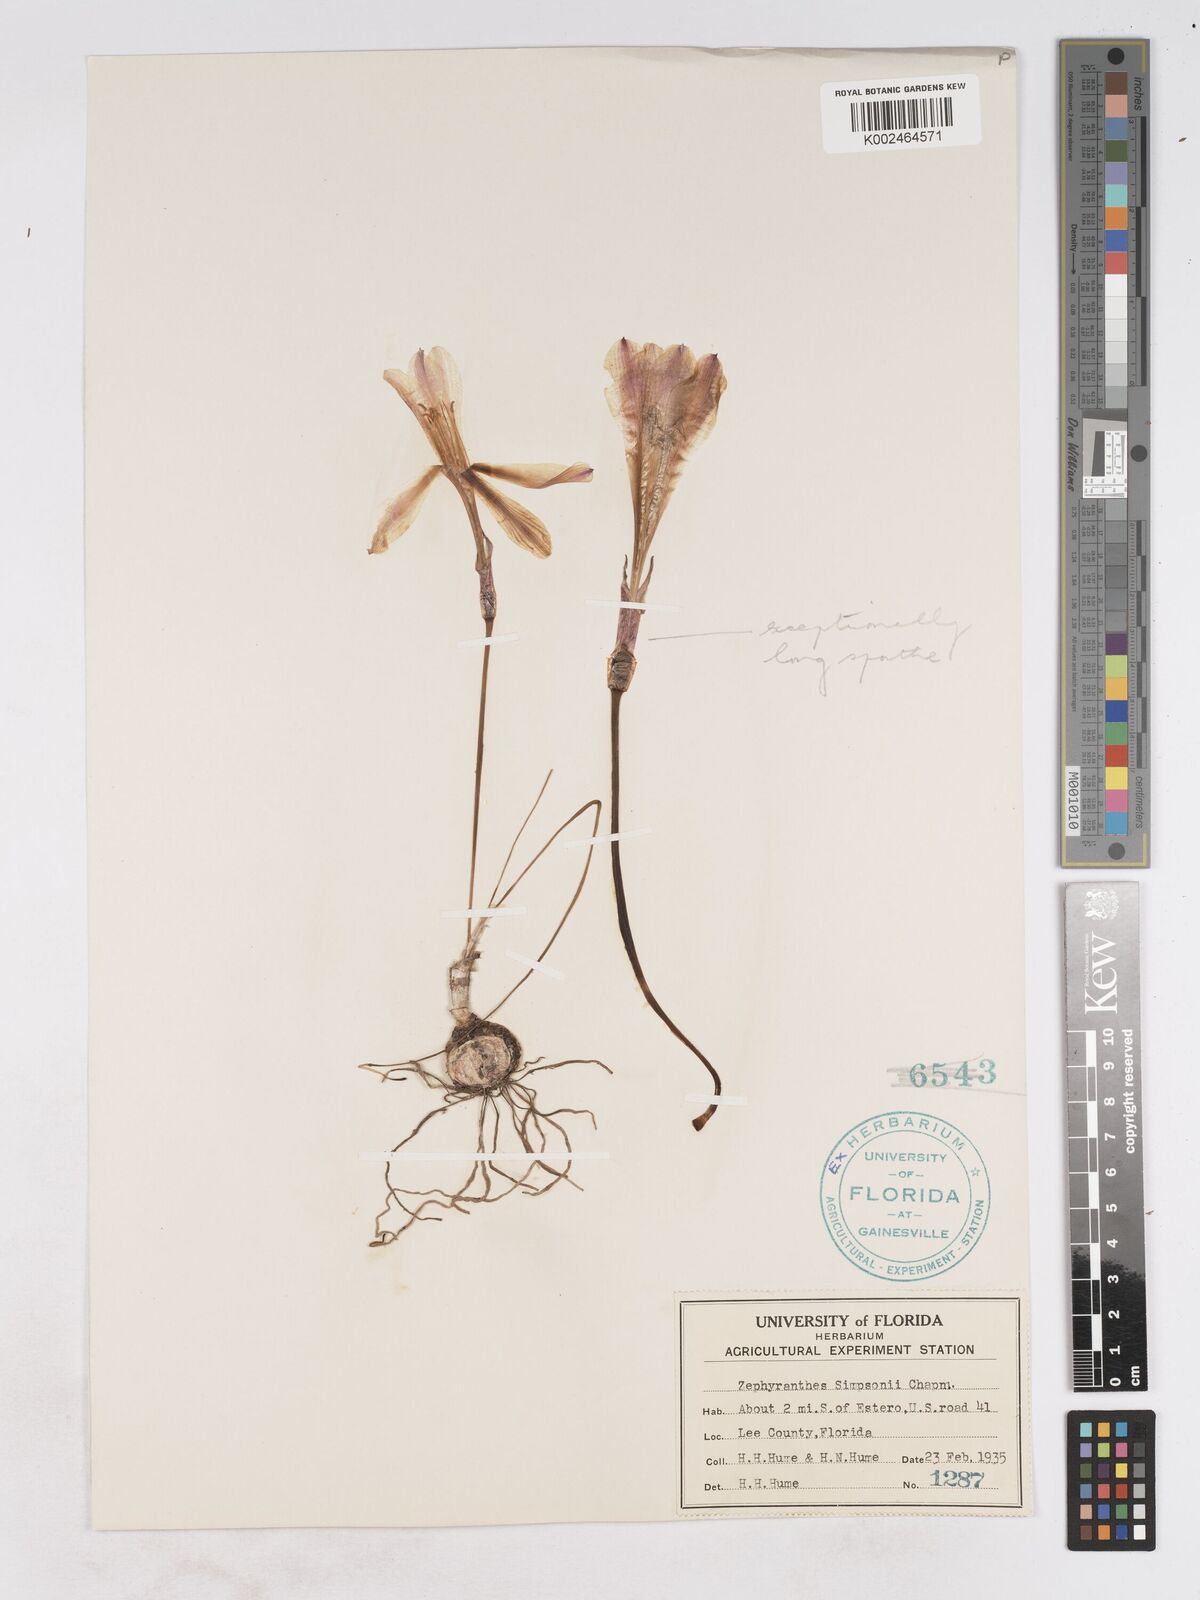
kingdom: Plantae
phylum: Tracheophyta
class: Liliopsida
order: Asparagales
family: Amaryllidaceae
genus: Zephyranthes
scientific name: Zephyranthes simpsonii
